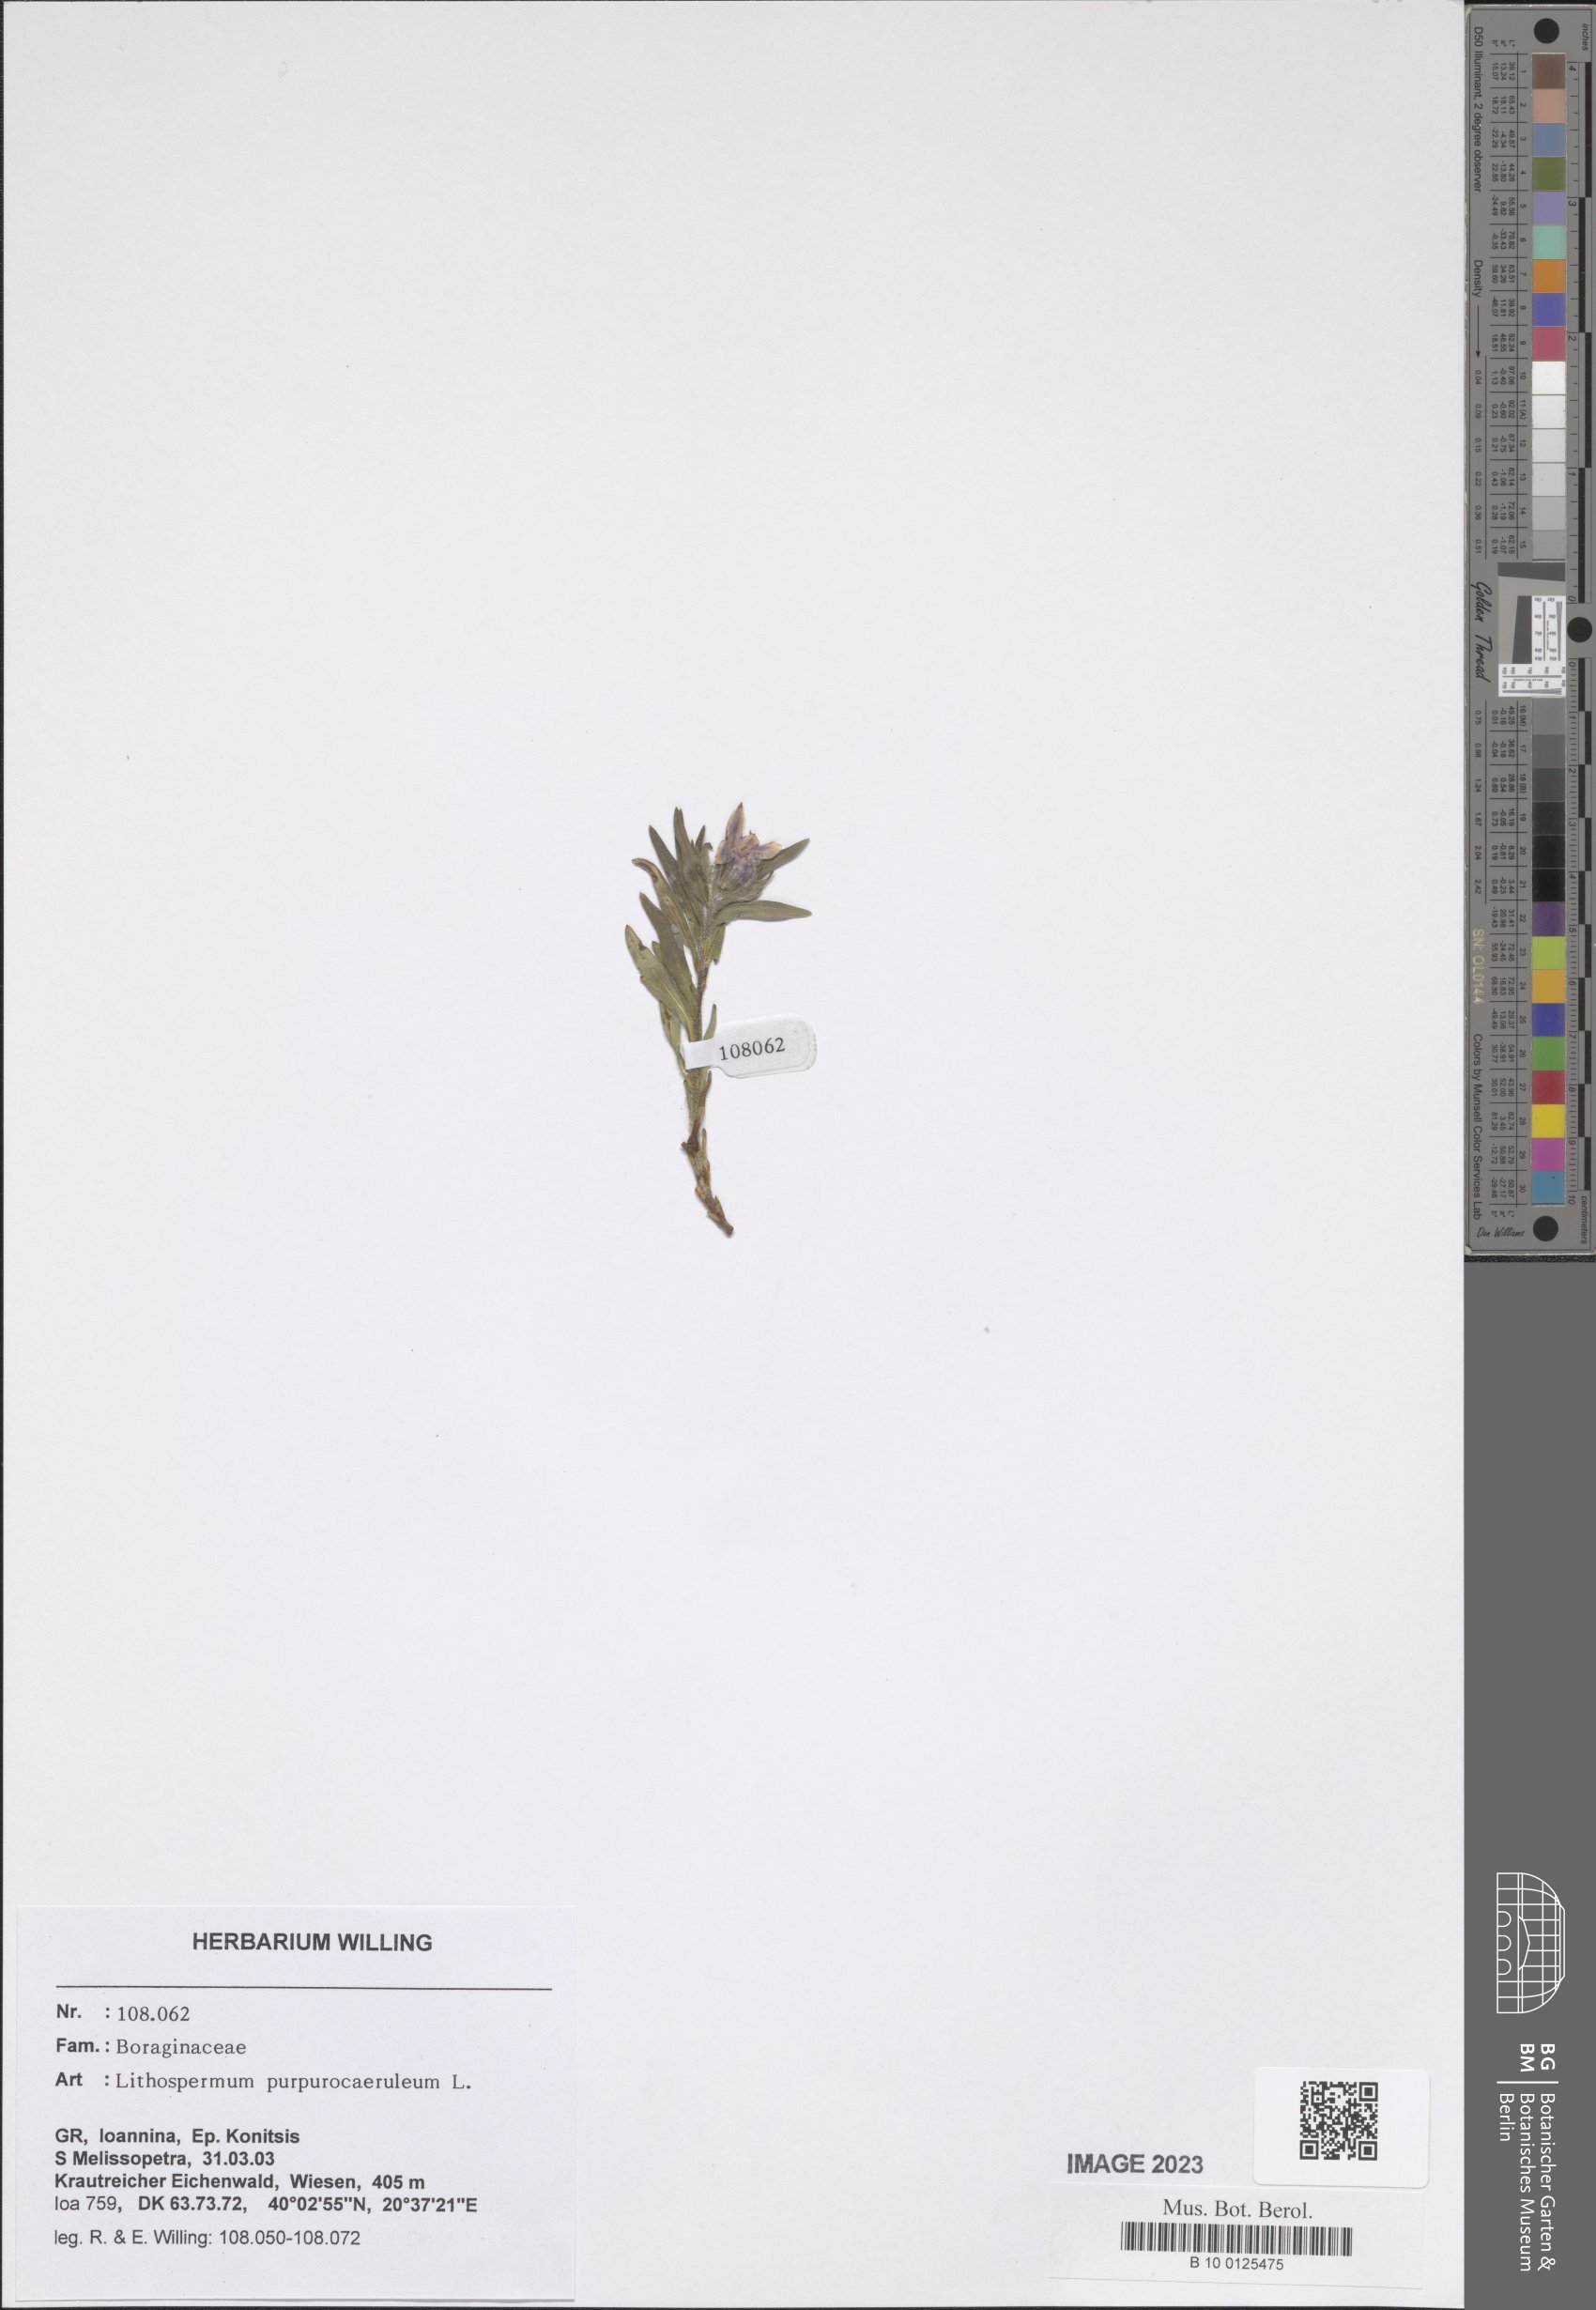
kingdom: Plantae
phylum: Tracheophyta
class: Magnoliopsida
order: Boraginales
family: Boraginaceae
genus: Aegonychon
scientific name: Aegonychon purpurocaeruleum
